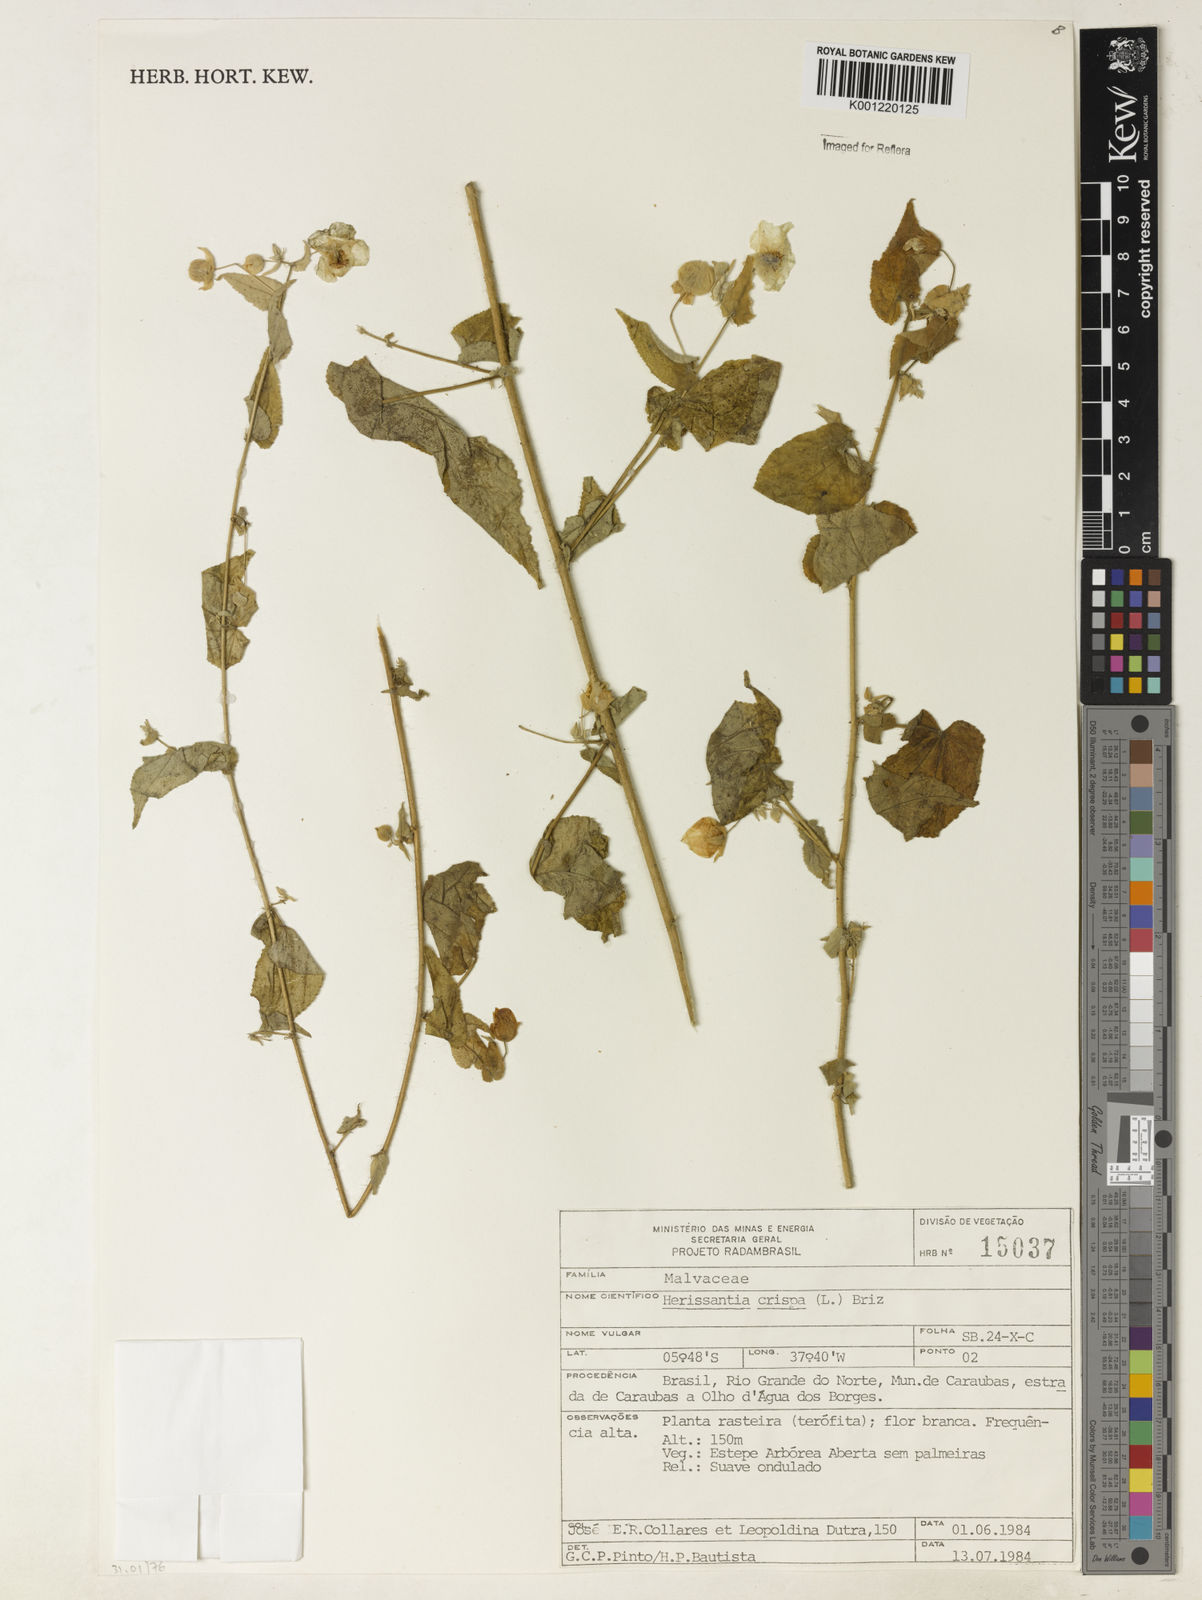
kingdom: Plantae
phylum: Tracheophyta
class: Magnoliopsida
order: Malvales
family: Malvaceae
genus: Herissantia
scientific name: Herissantia crispa
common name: Bladdermallow
